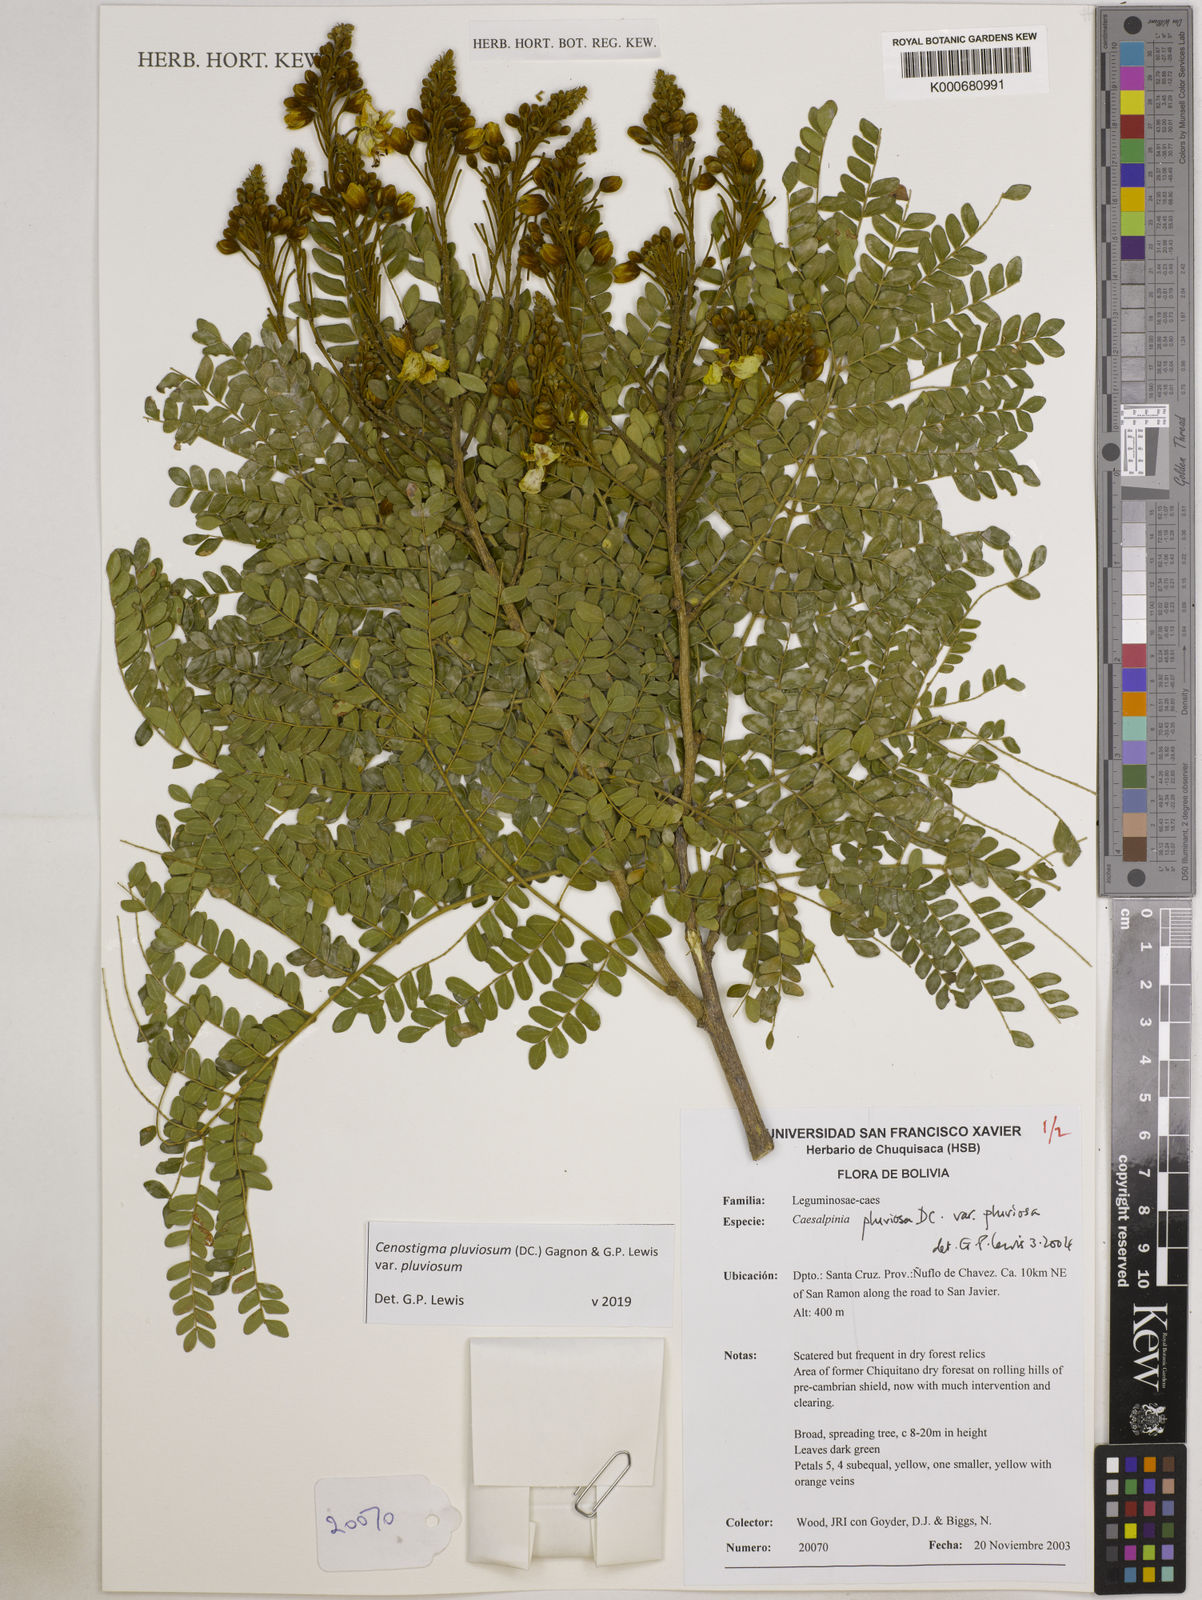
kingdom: Plantae
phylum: Tracheophyta
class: Magnoliopsida
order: Fabales
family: Fabaceae
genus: Cenostigma
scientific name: Cenostigma pluviosum
